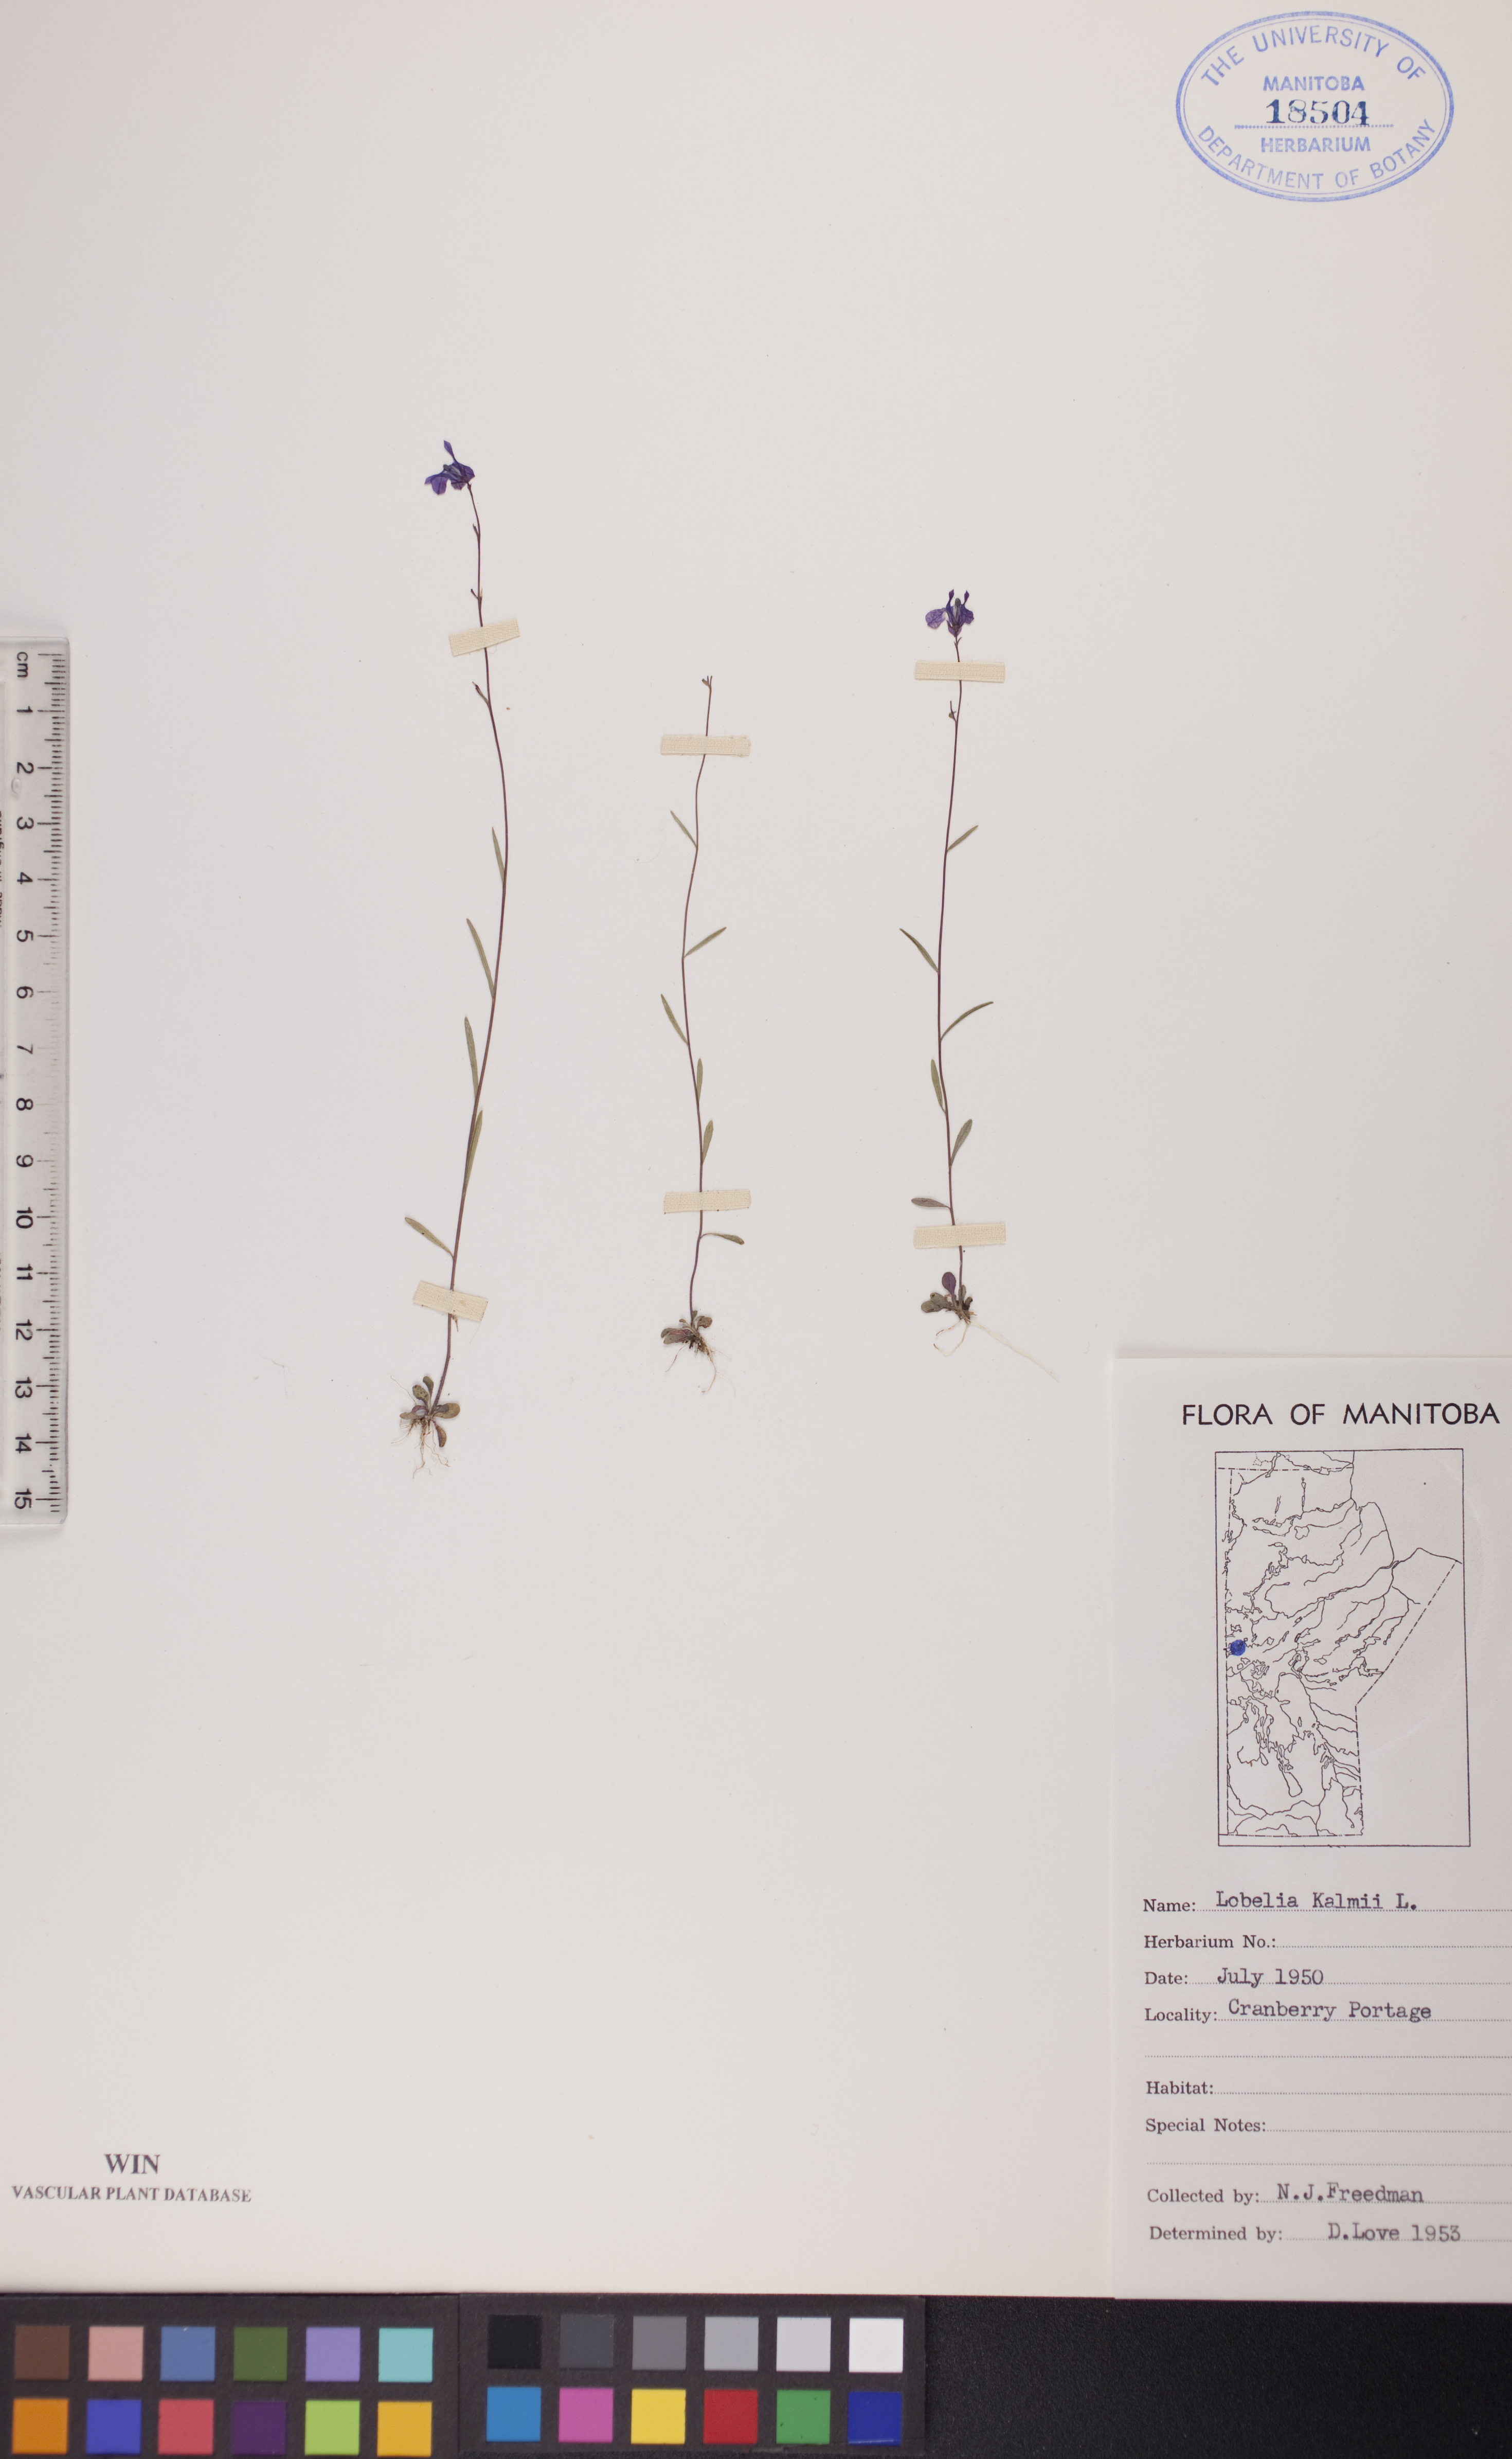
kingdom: Plantae
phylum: Tracheophyta
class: Magnoliopsida
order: Asterales
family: Campanulaceae
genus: Lobelia
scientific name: Lobelia kalmii
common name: Kalm's lobelia
